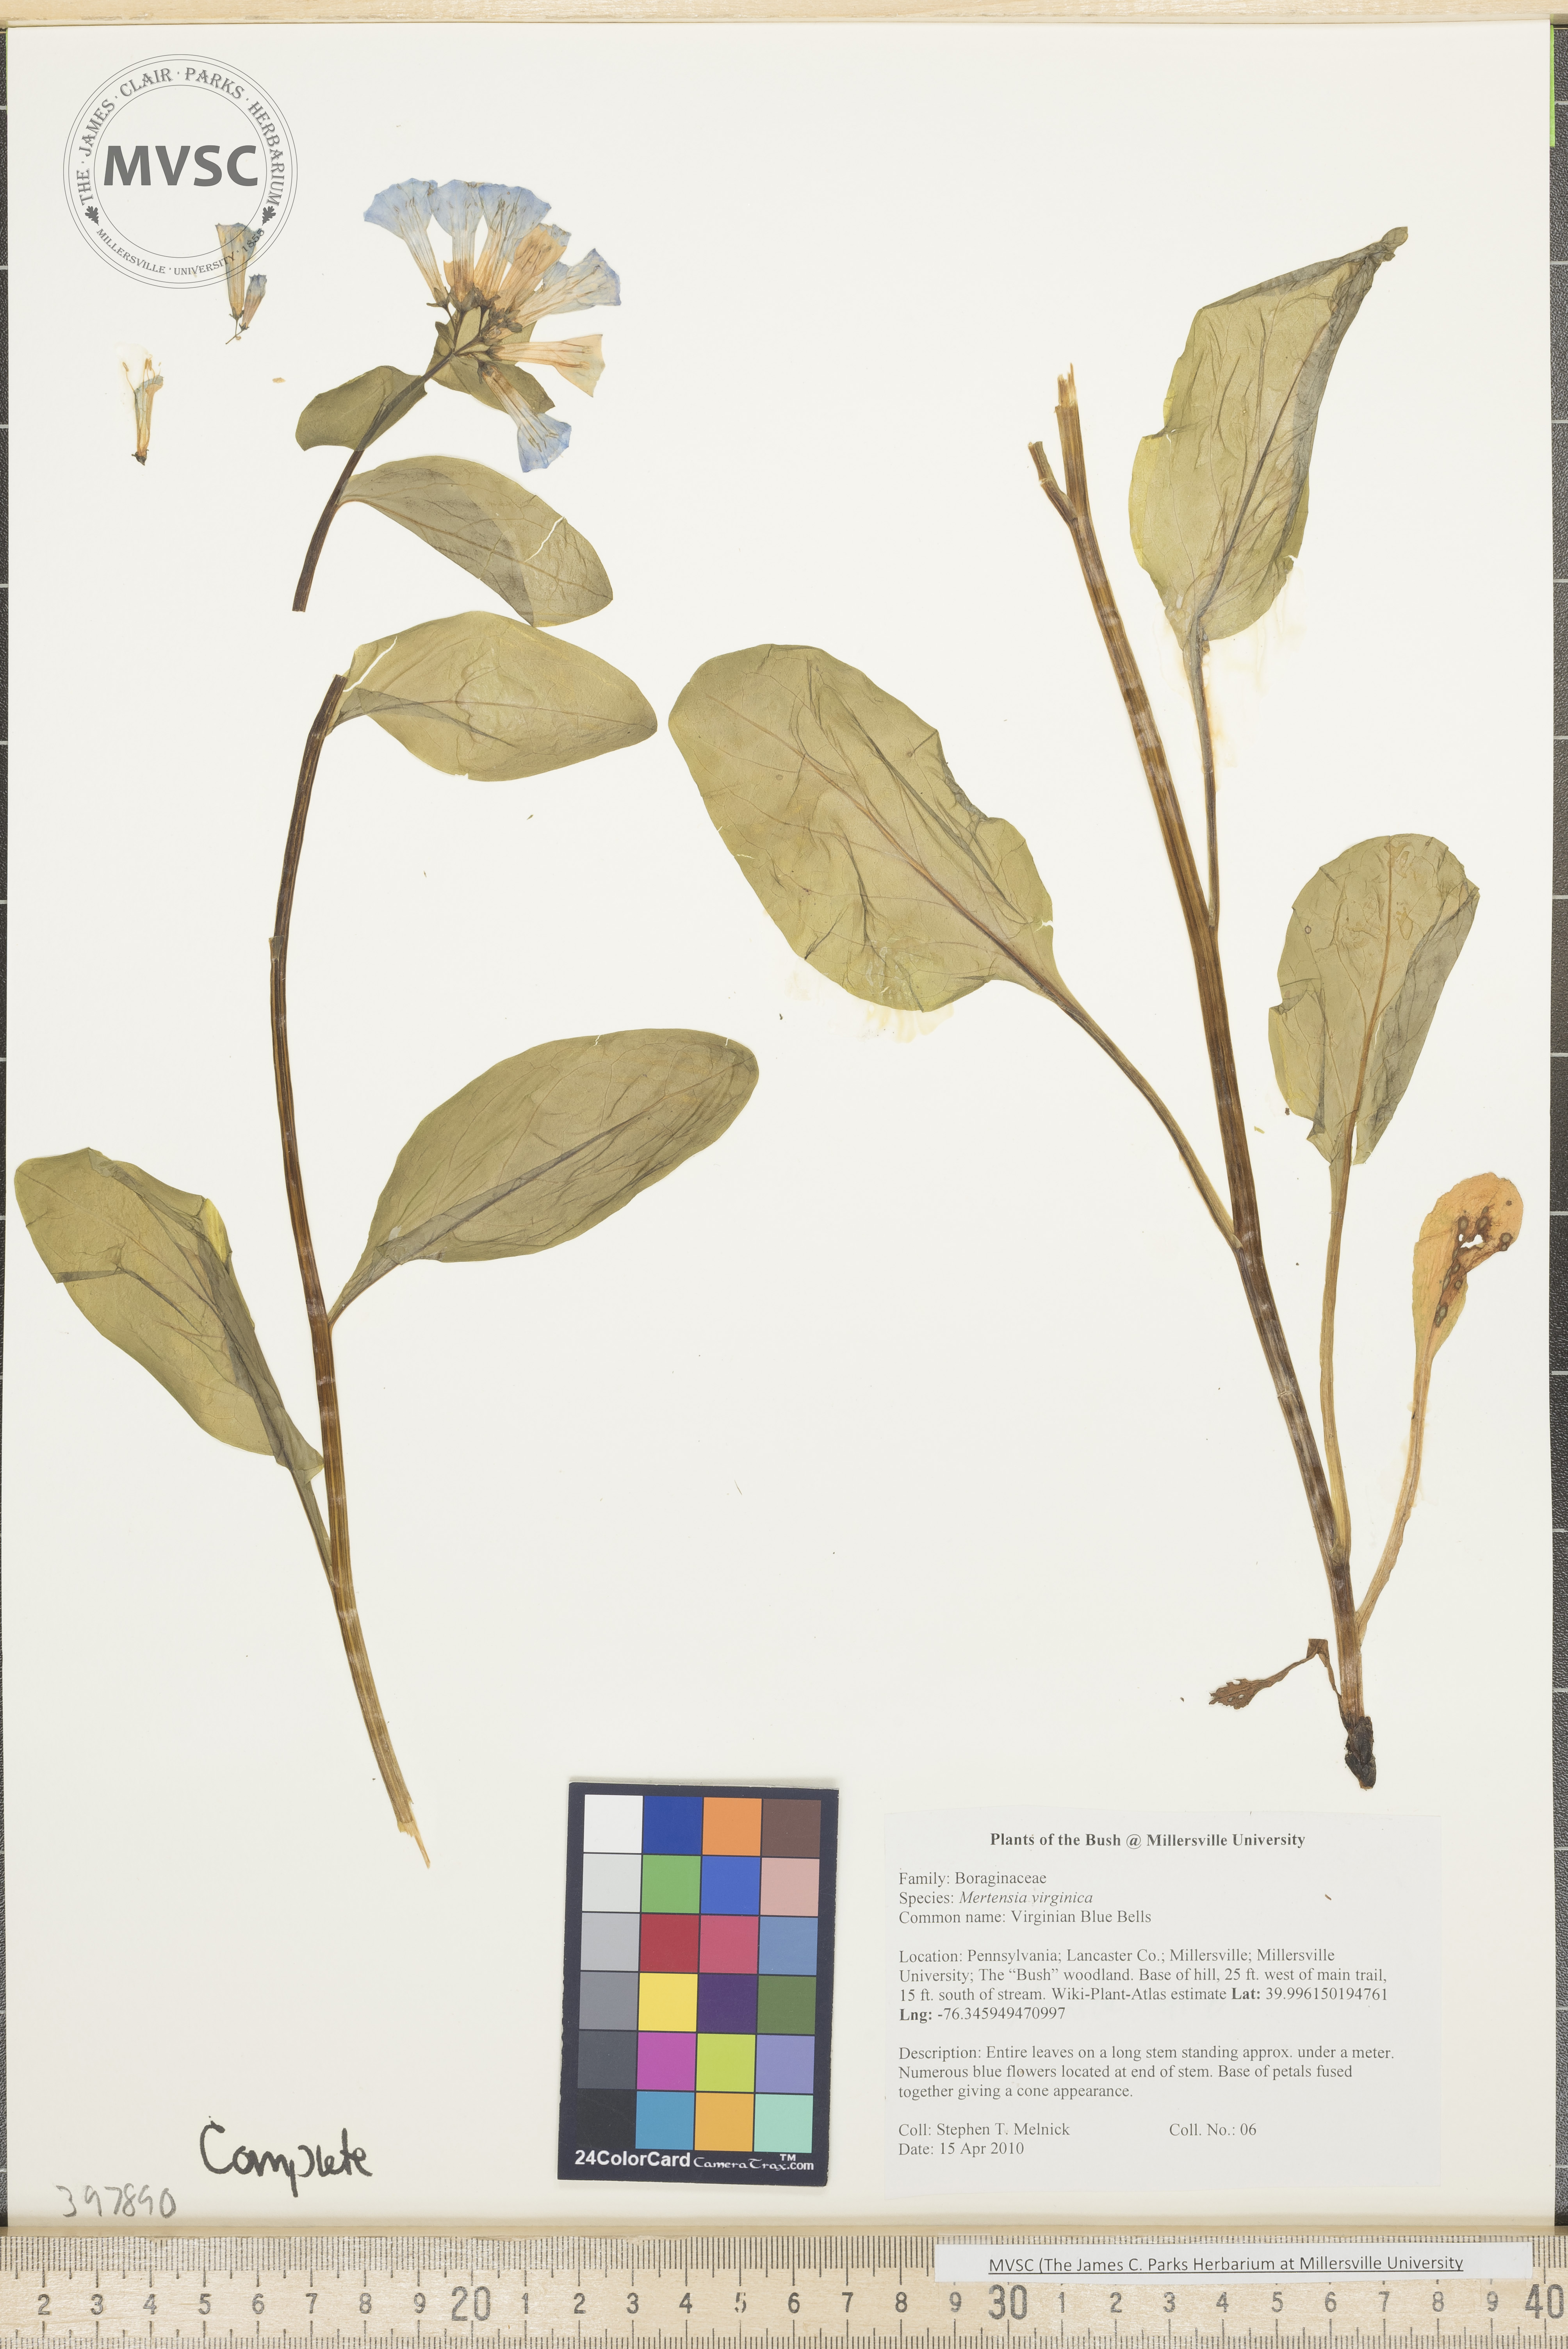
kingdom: Plantae
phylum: Tracheophyta
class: Magnoliopsida
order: Boraginales
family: Boraginaceae
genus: Mertensia
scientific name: Mertensia virginica
